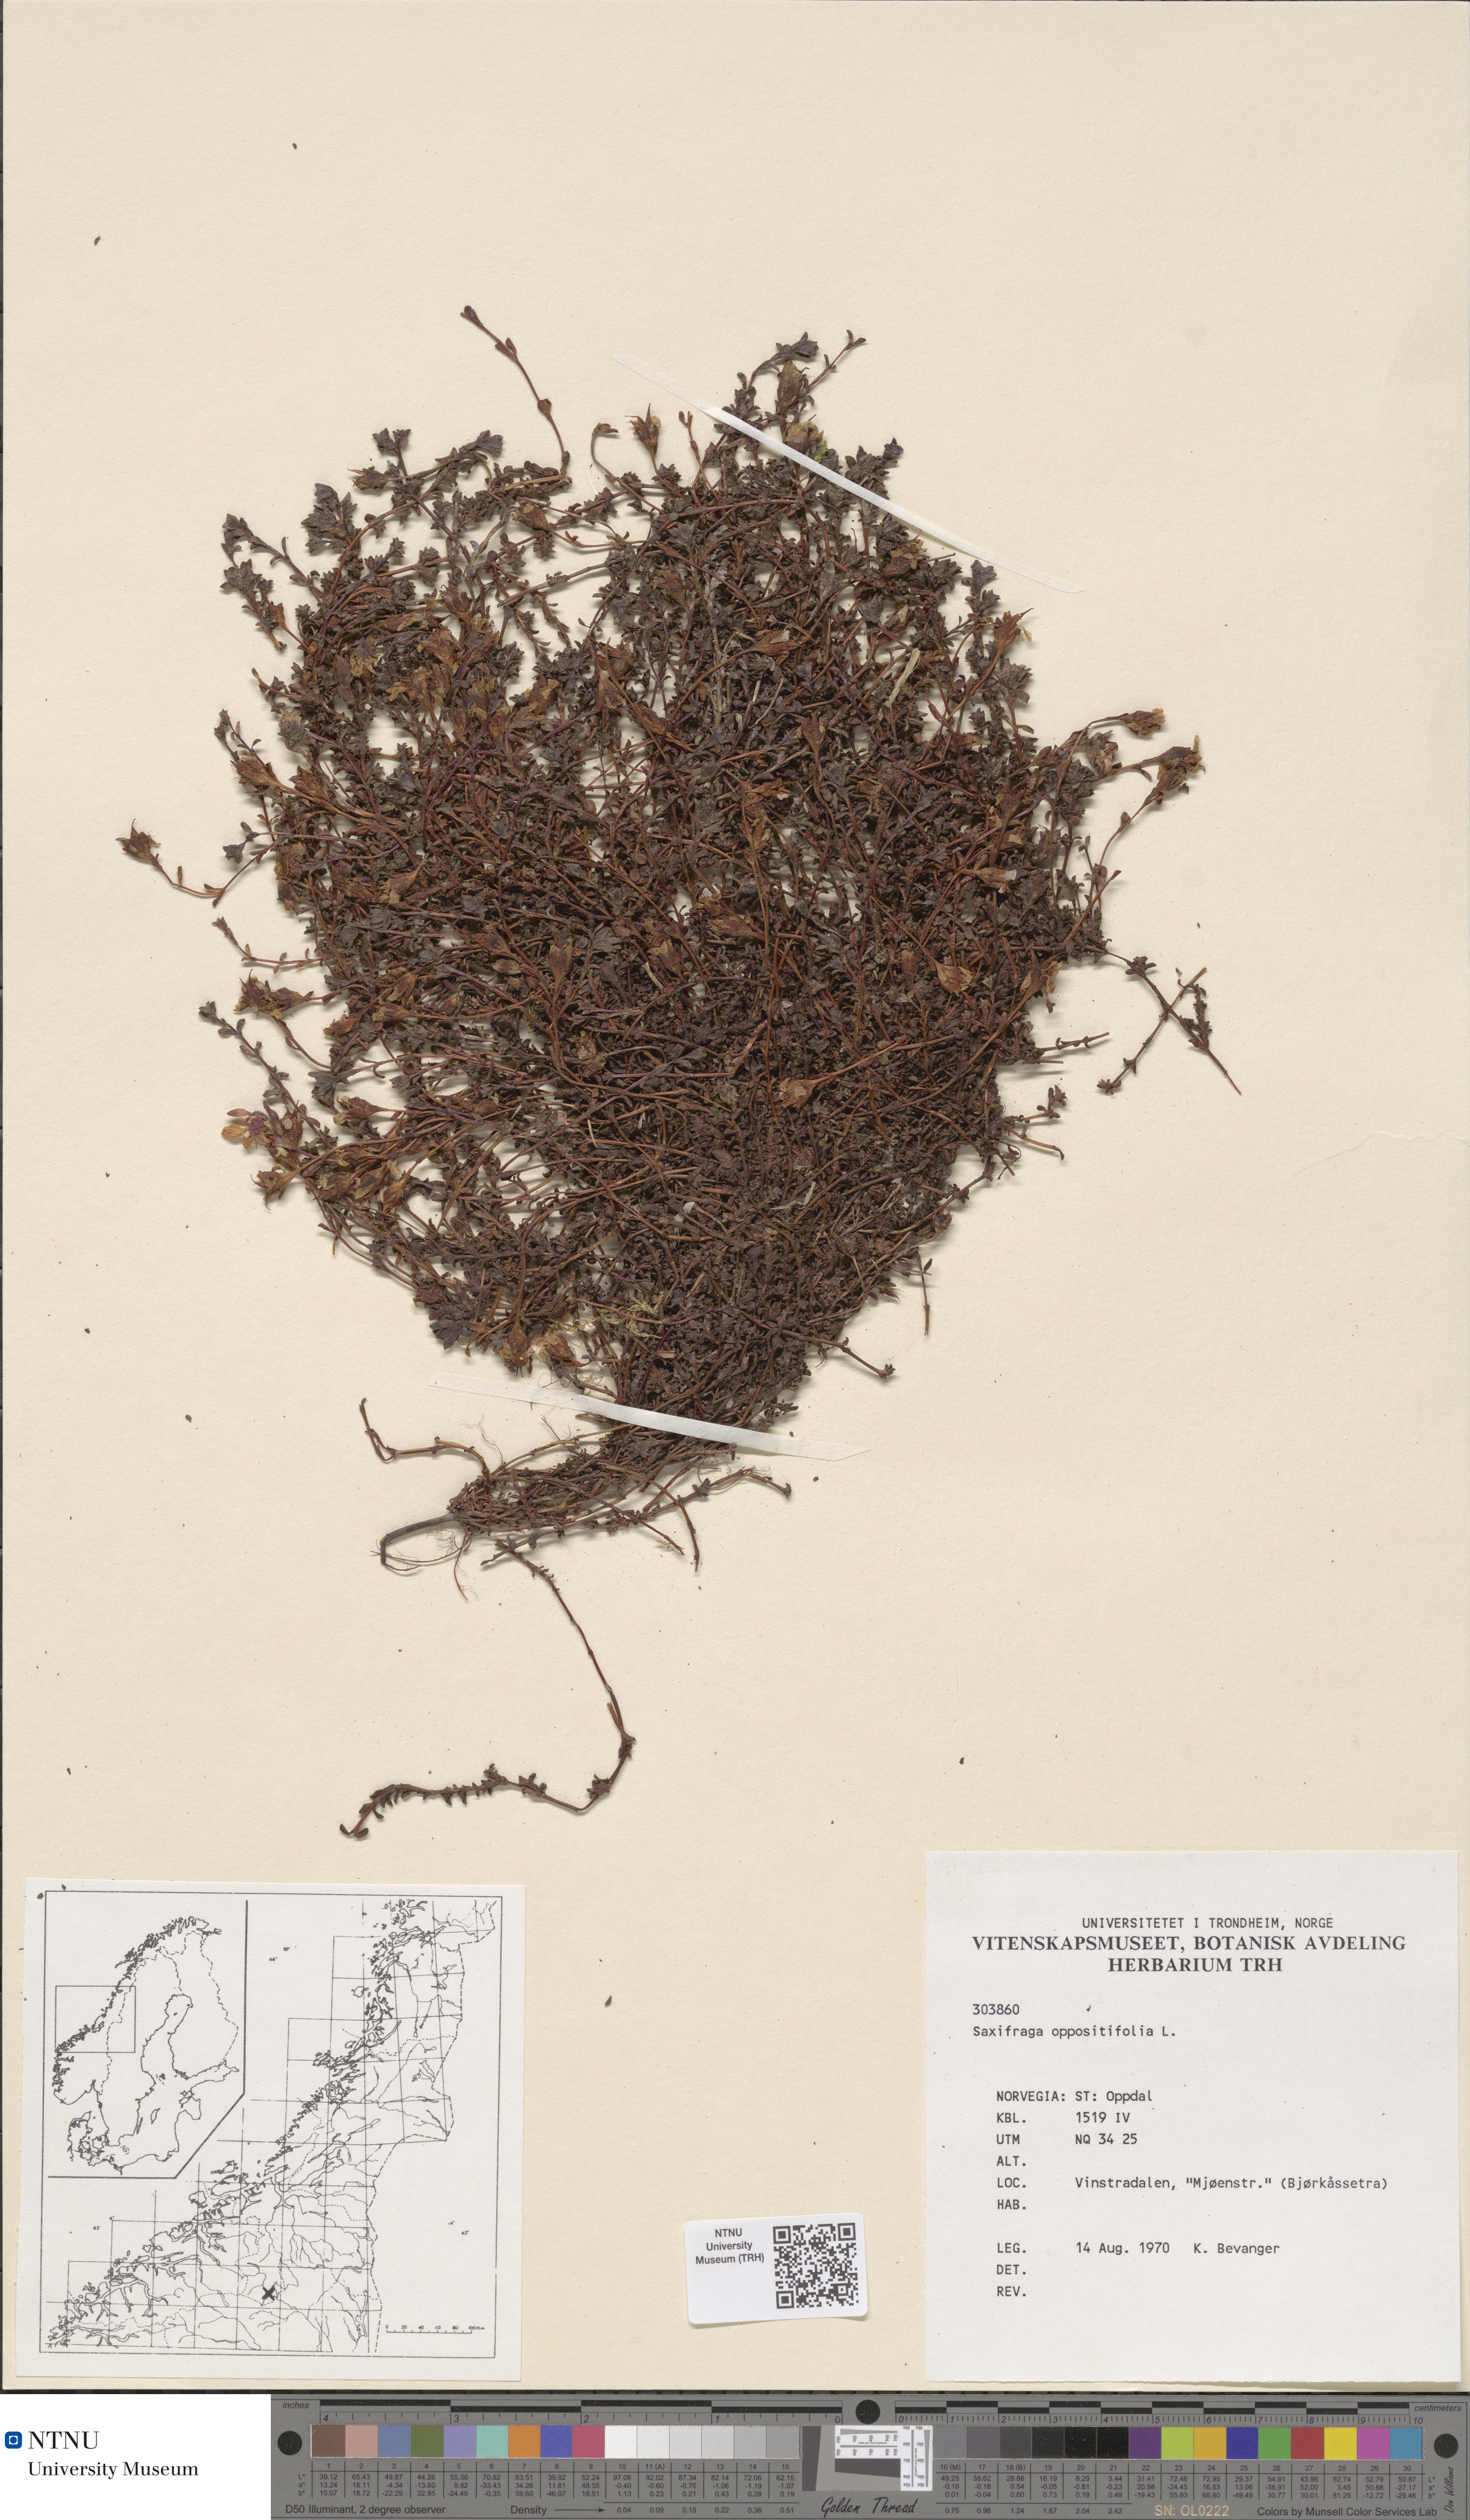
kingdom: Plantae
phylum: Tracheophyta
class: Magnoliopsida
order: Saxifragales
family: Saxifragaceae
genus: Saxifraga
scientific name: Saxifraga oppositifolia
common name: Purple saxifrage
